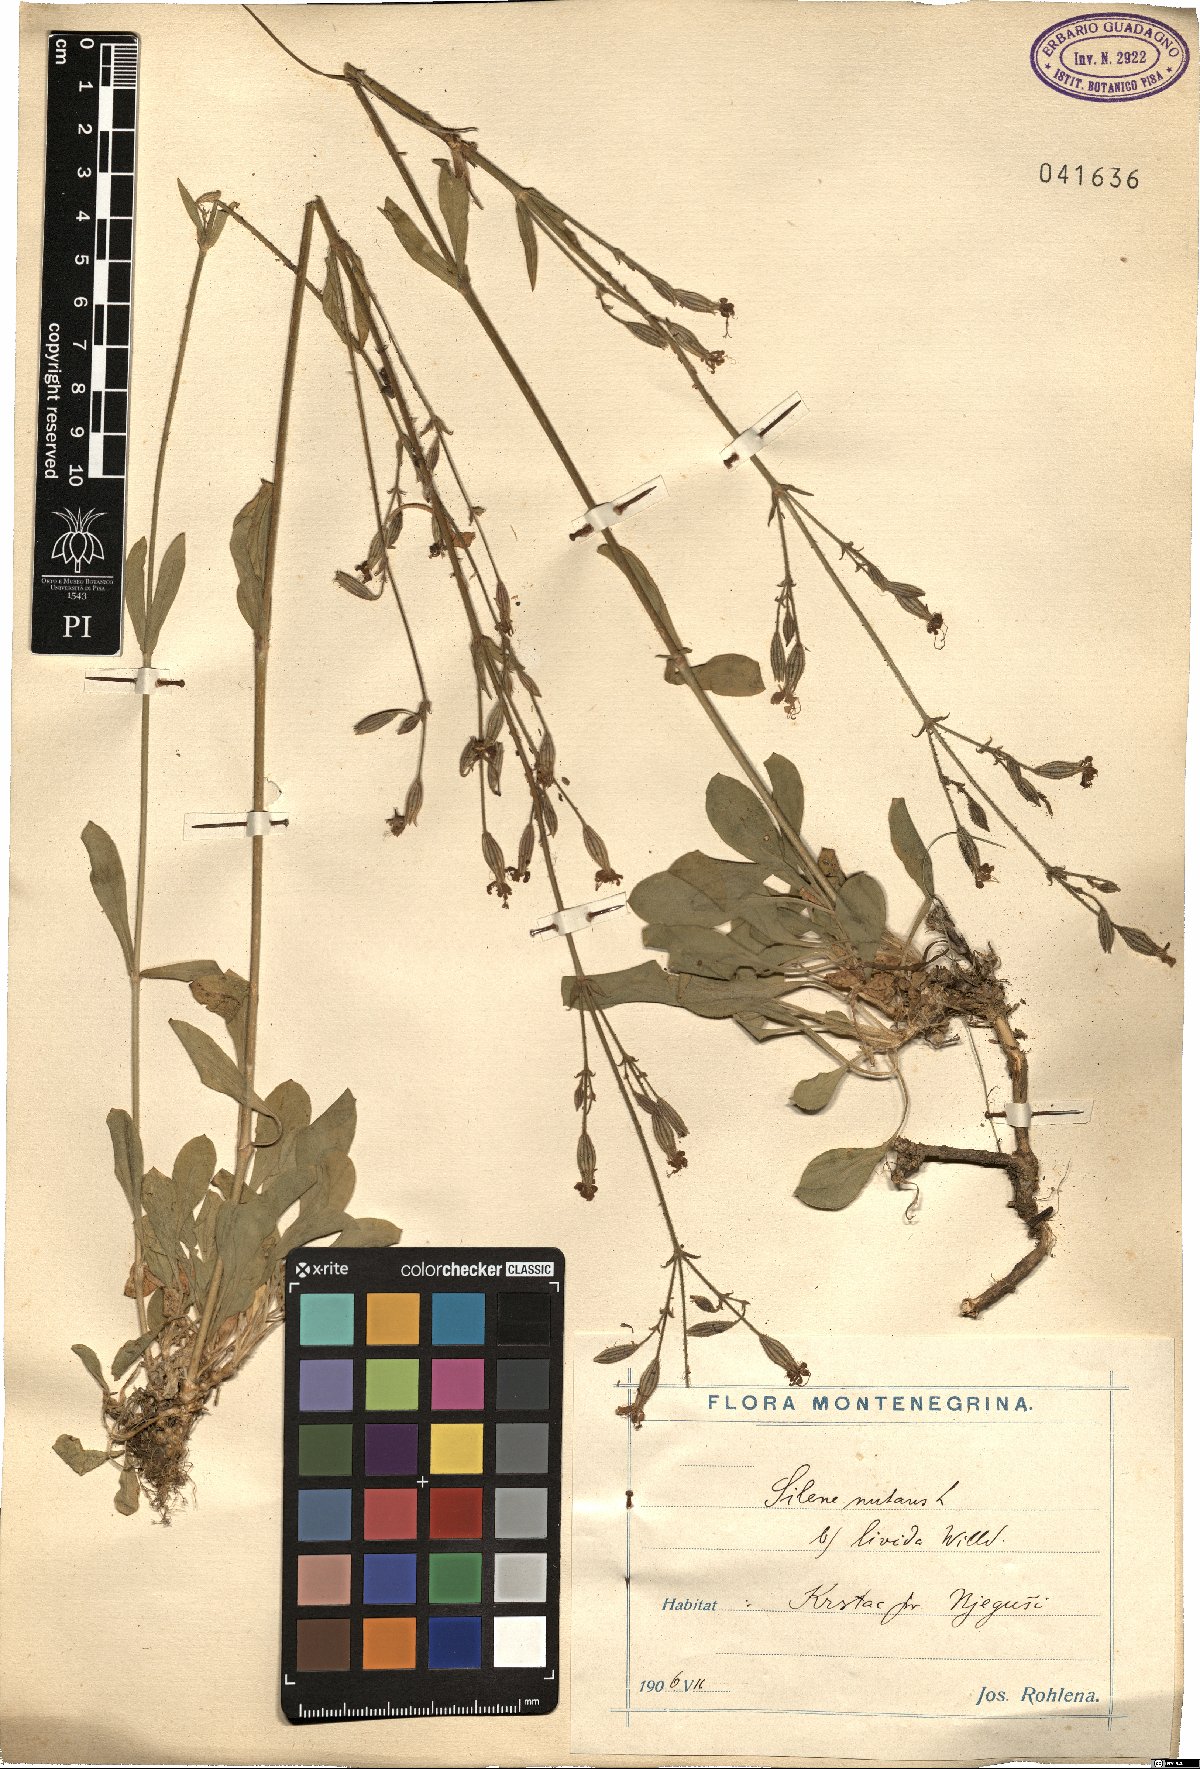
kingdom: Plantae
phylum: Tracheophyta
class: Magnoliopsida
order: Caryophyllales
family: Caryophyllaceae
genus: Silene
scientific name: Silene nutans
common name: Nottingham catchfly
